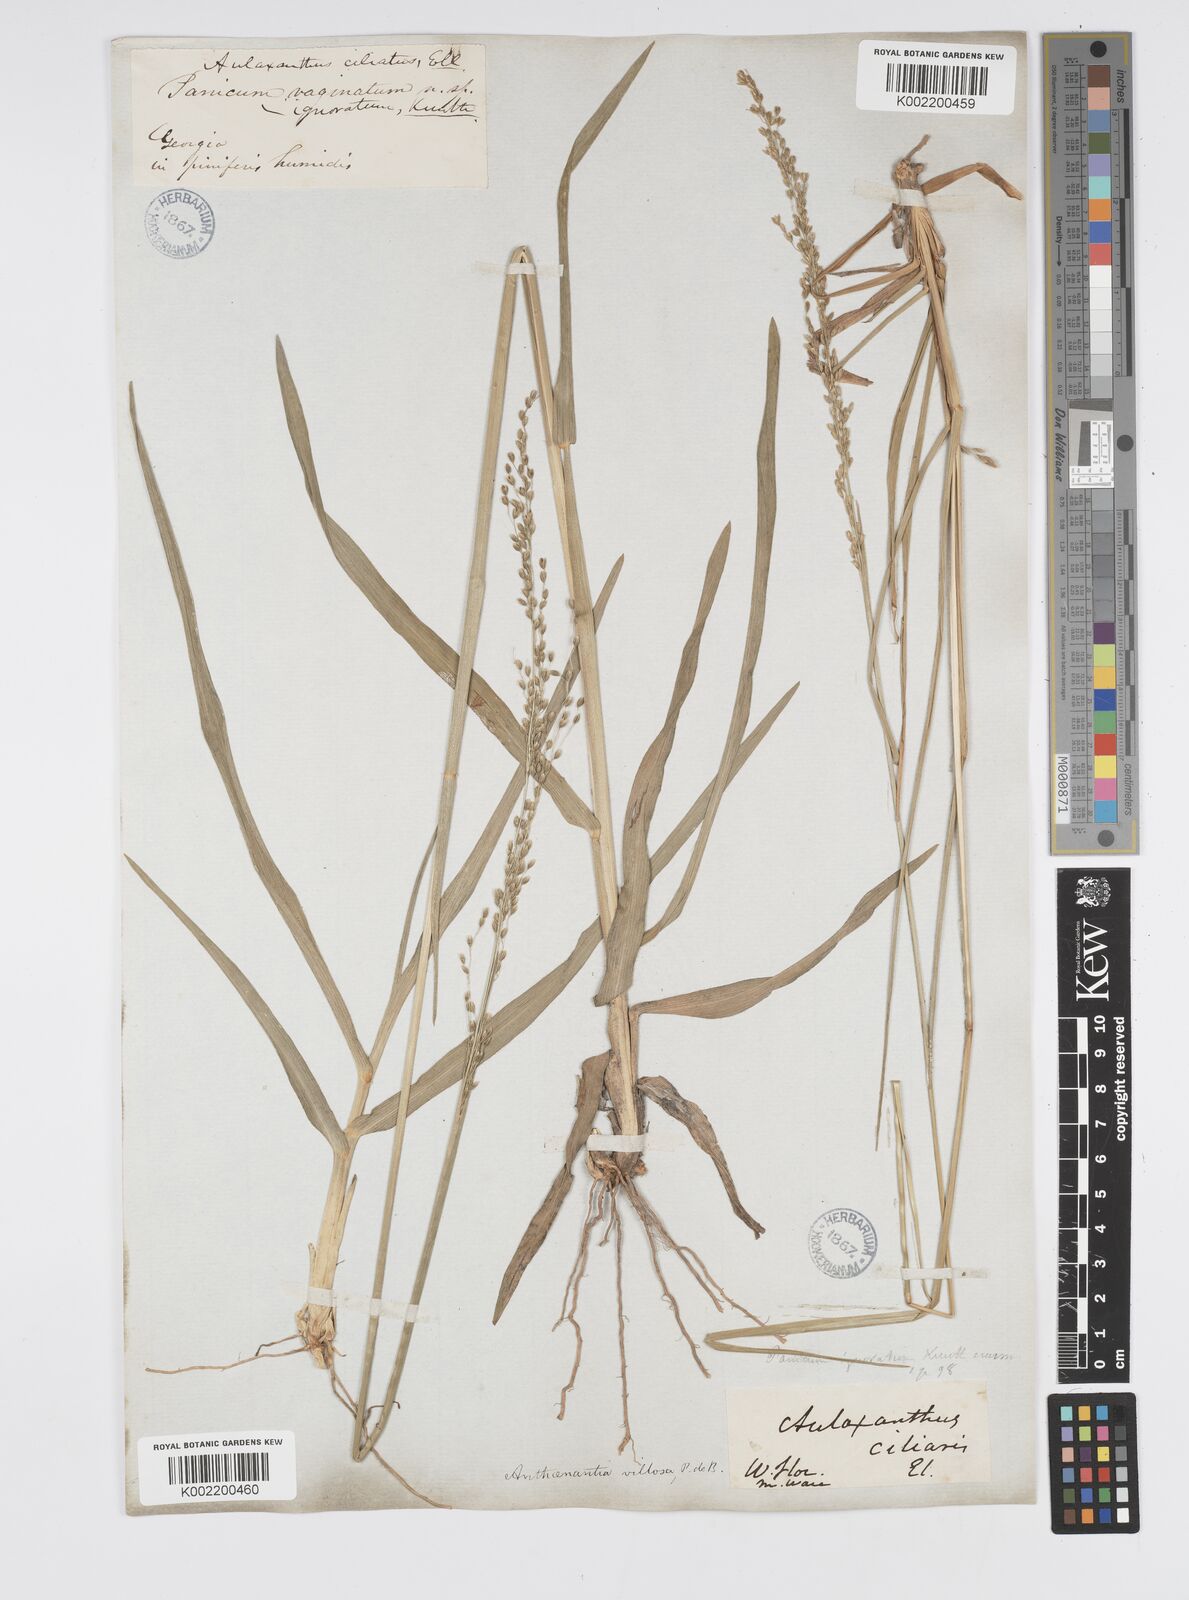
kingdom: Plantae
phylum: Tracheophyta
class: Liliopsida
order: Poales
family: Poaceae
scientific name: Poaceae
